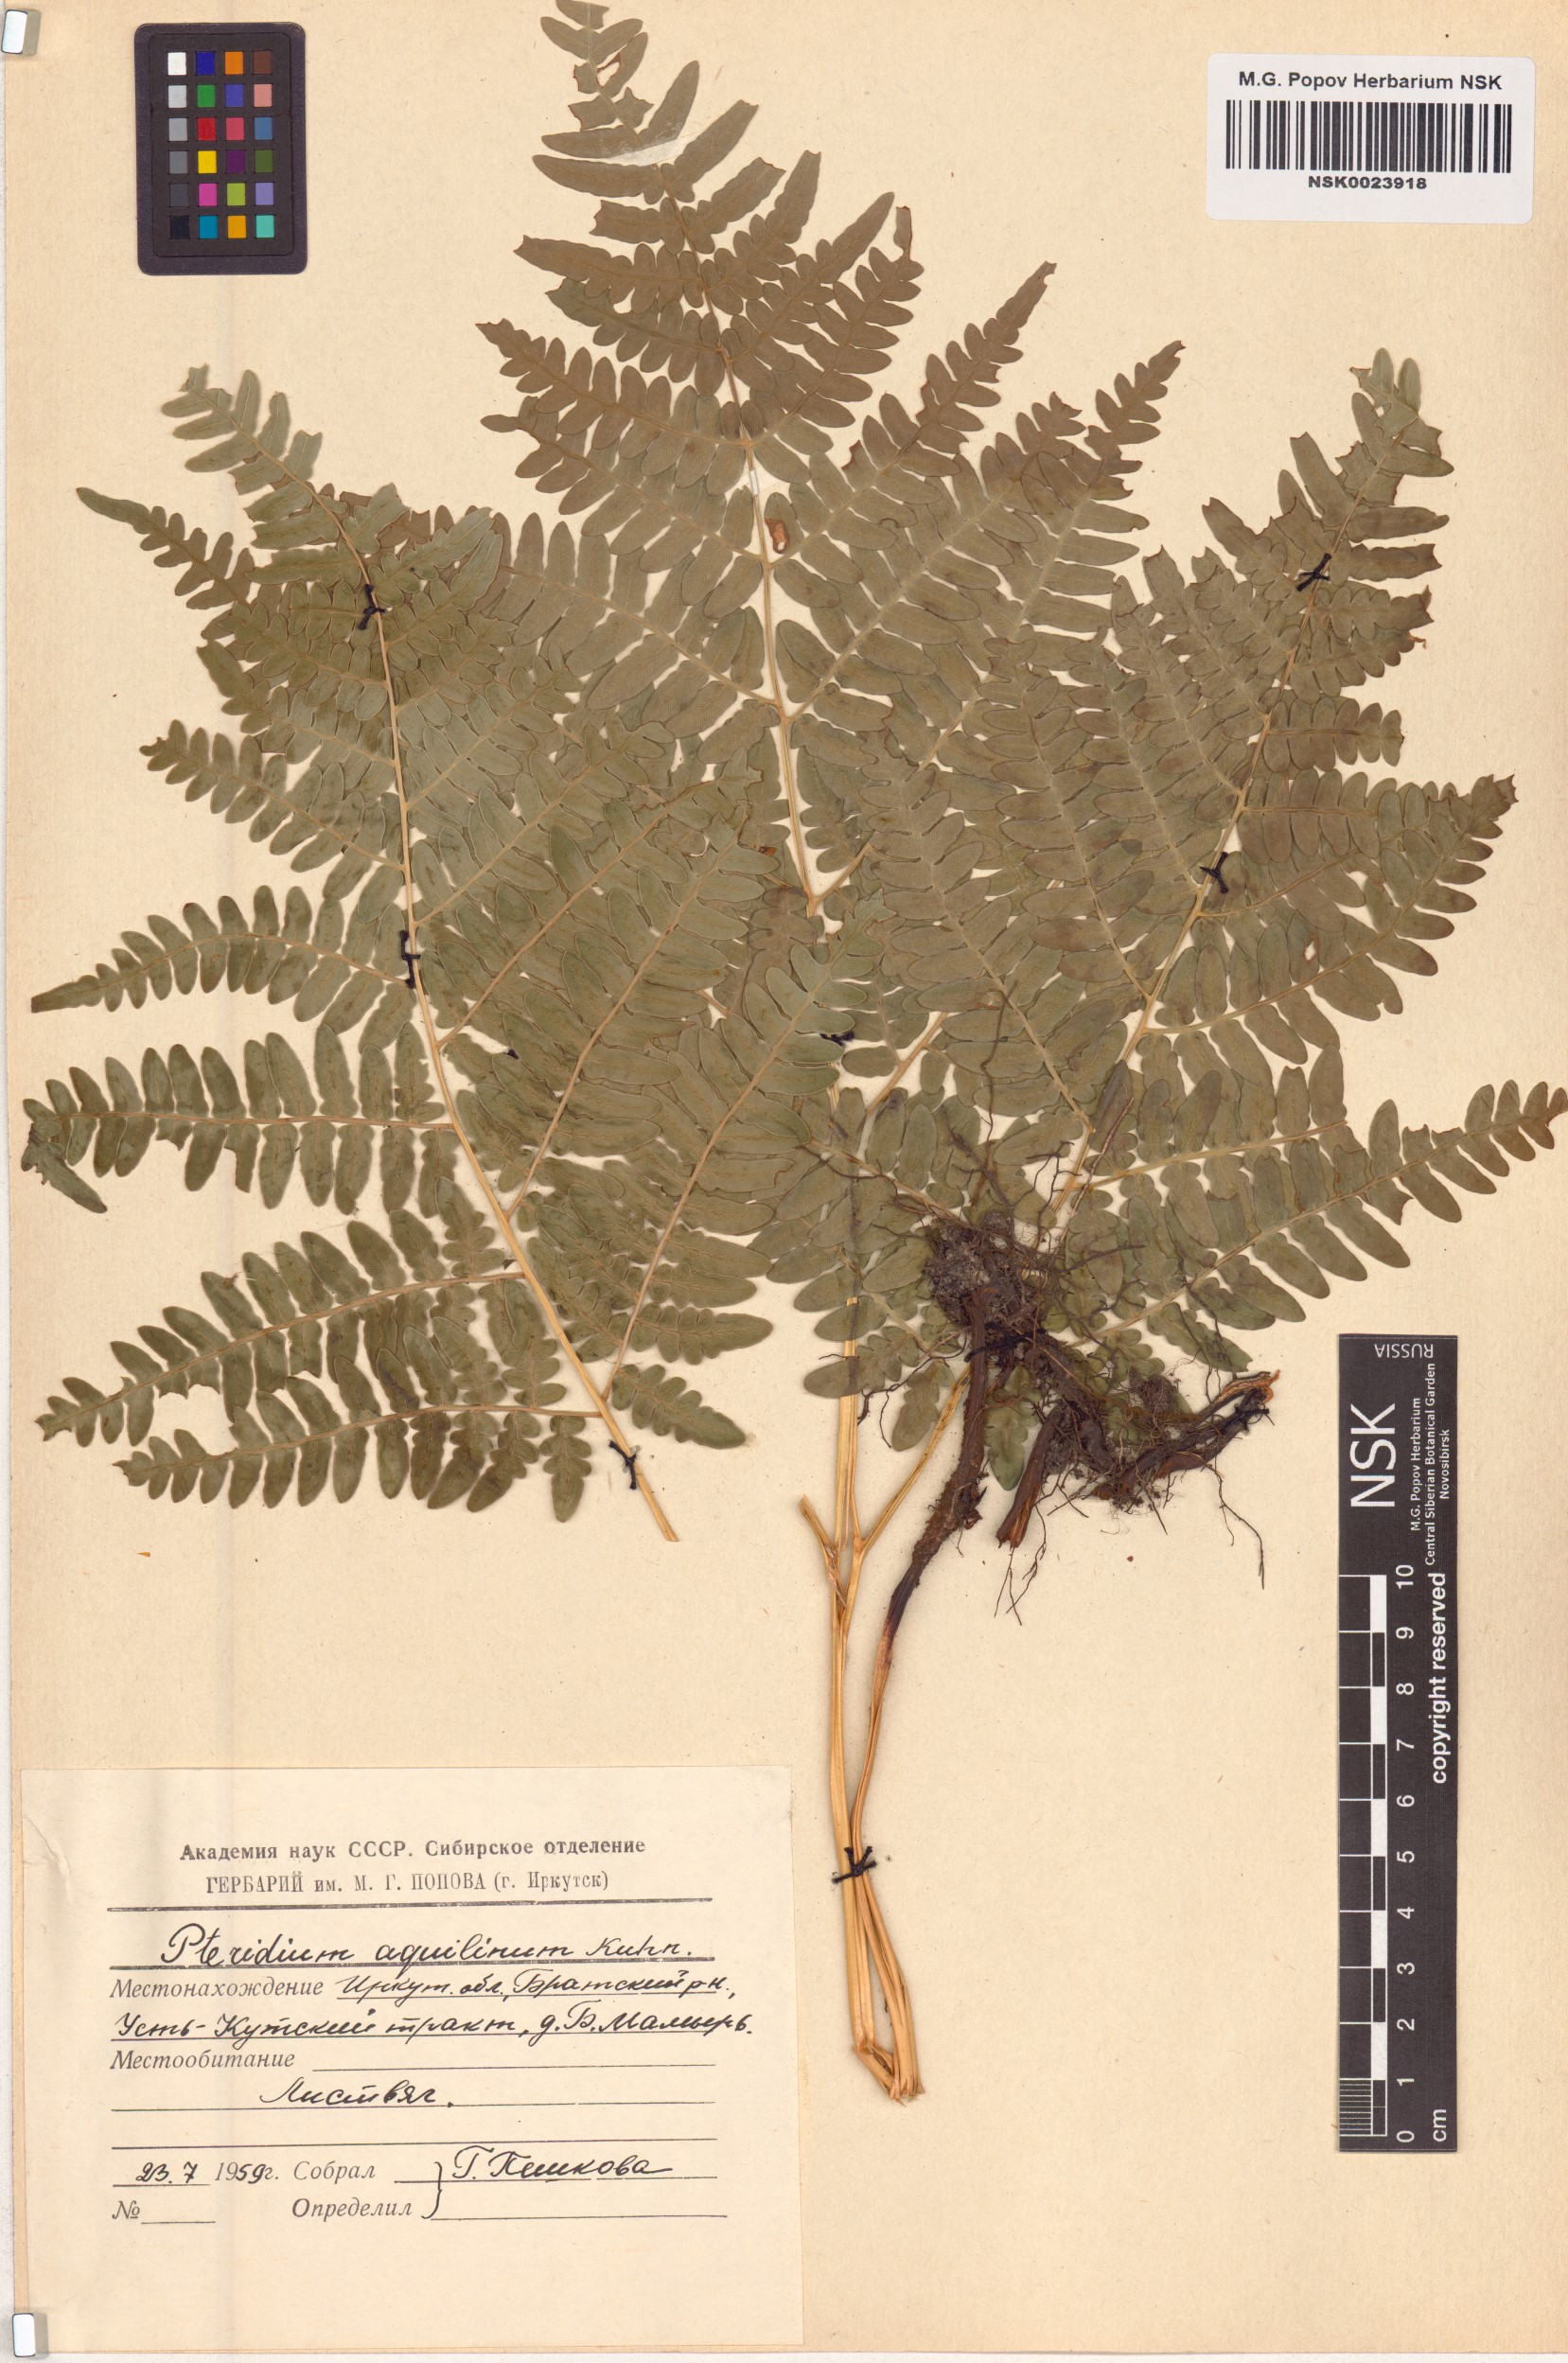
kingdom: Plantae
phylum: Tracheophyta
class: Polypodiopsida
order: Polypodiales
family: Dennstaedtiaceae
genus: Pteridium
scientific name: Pteridium aquilinum
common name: Bracken
